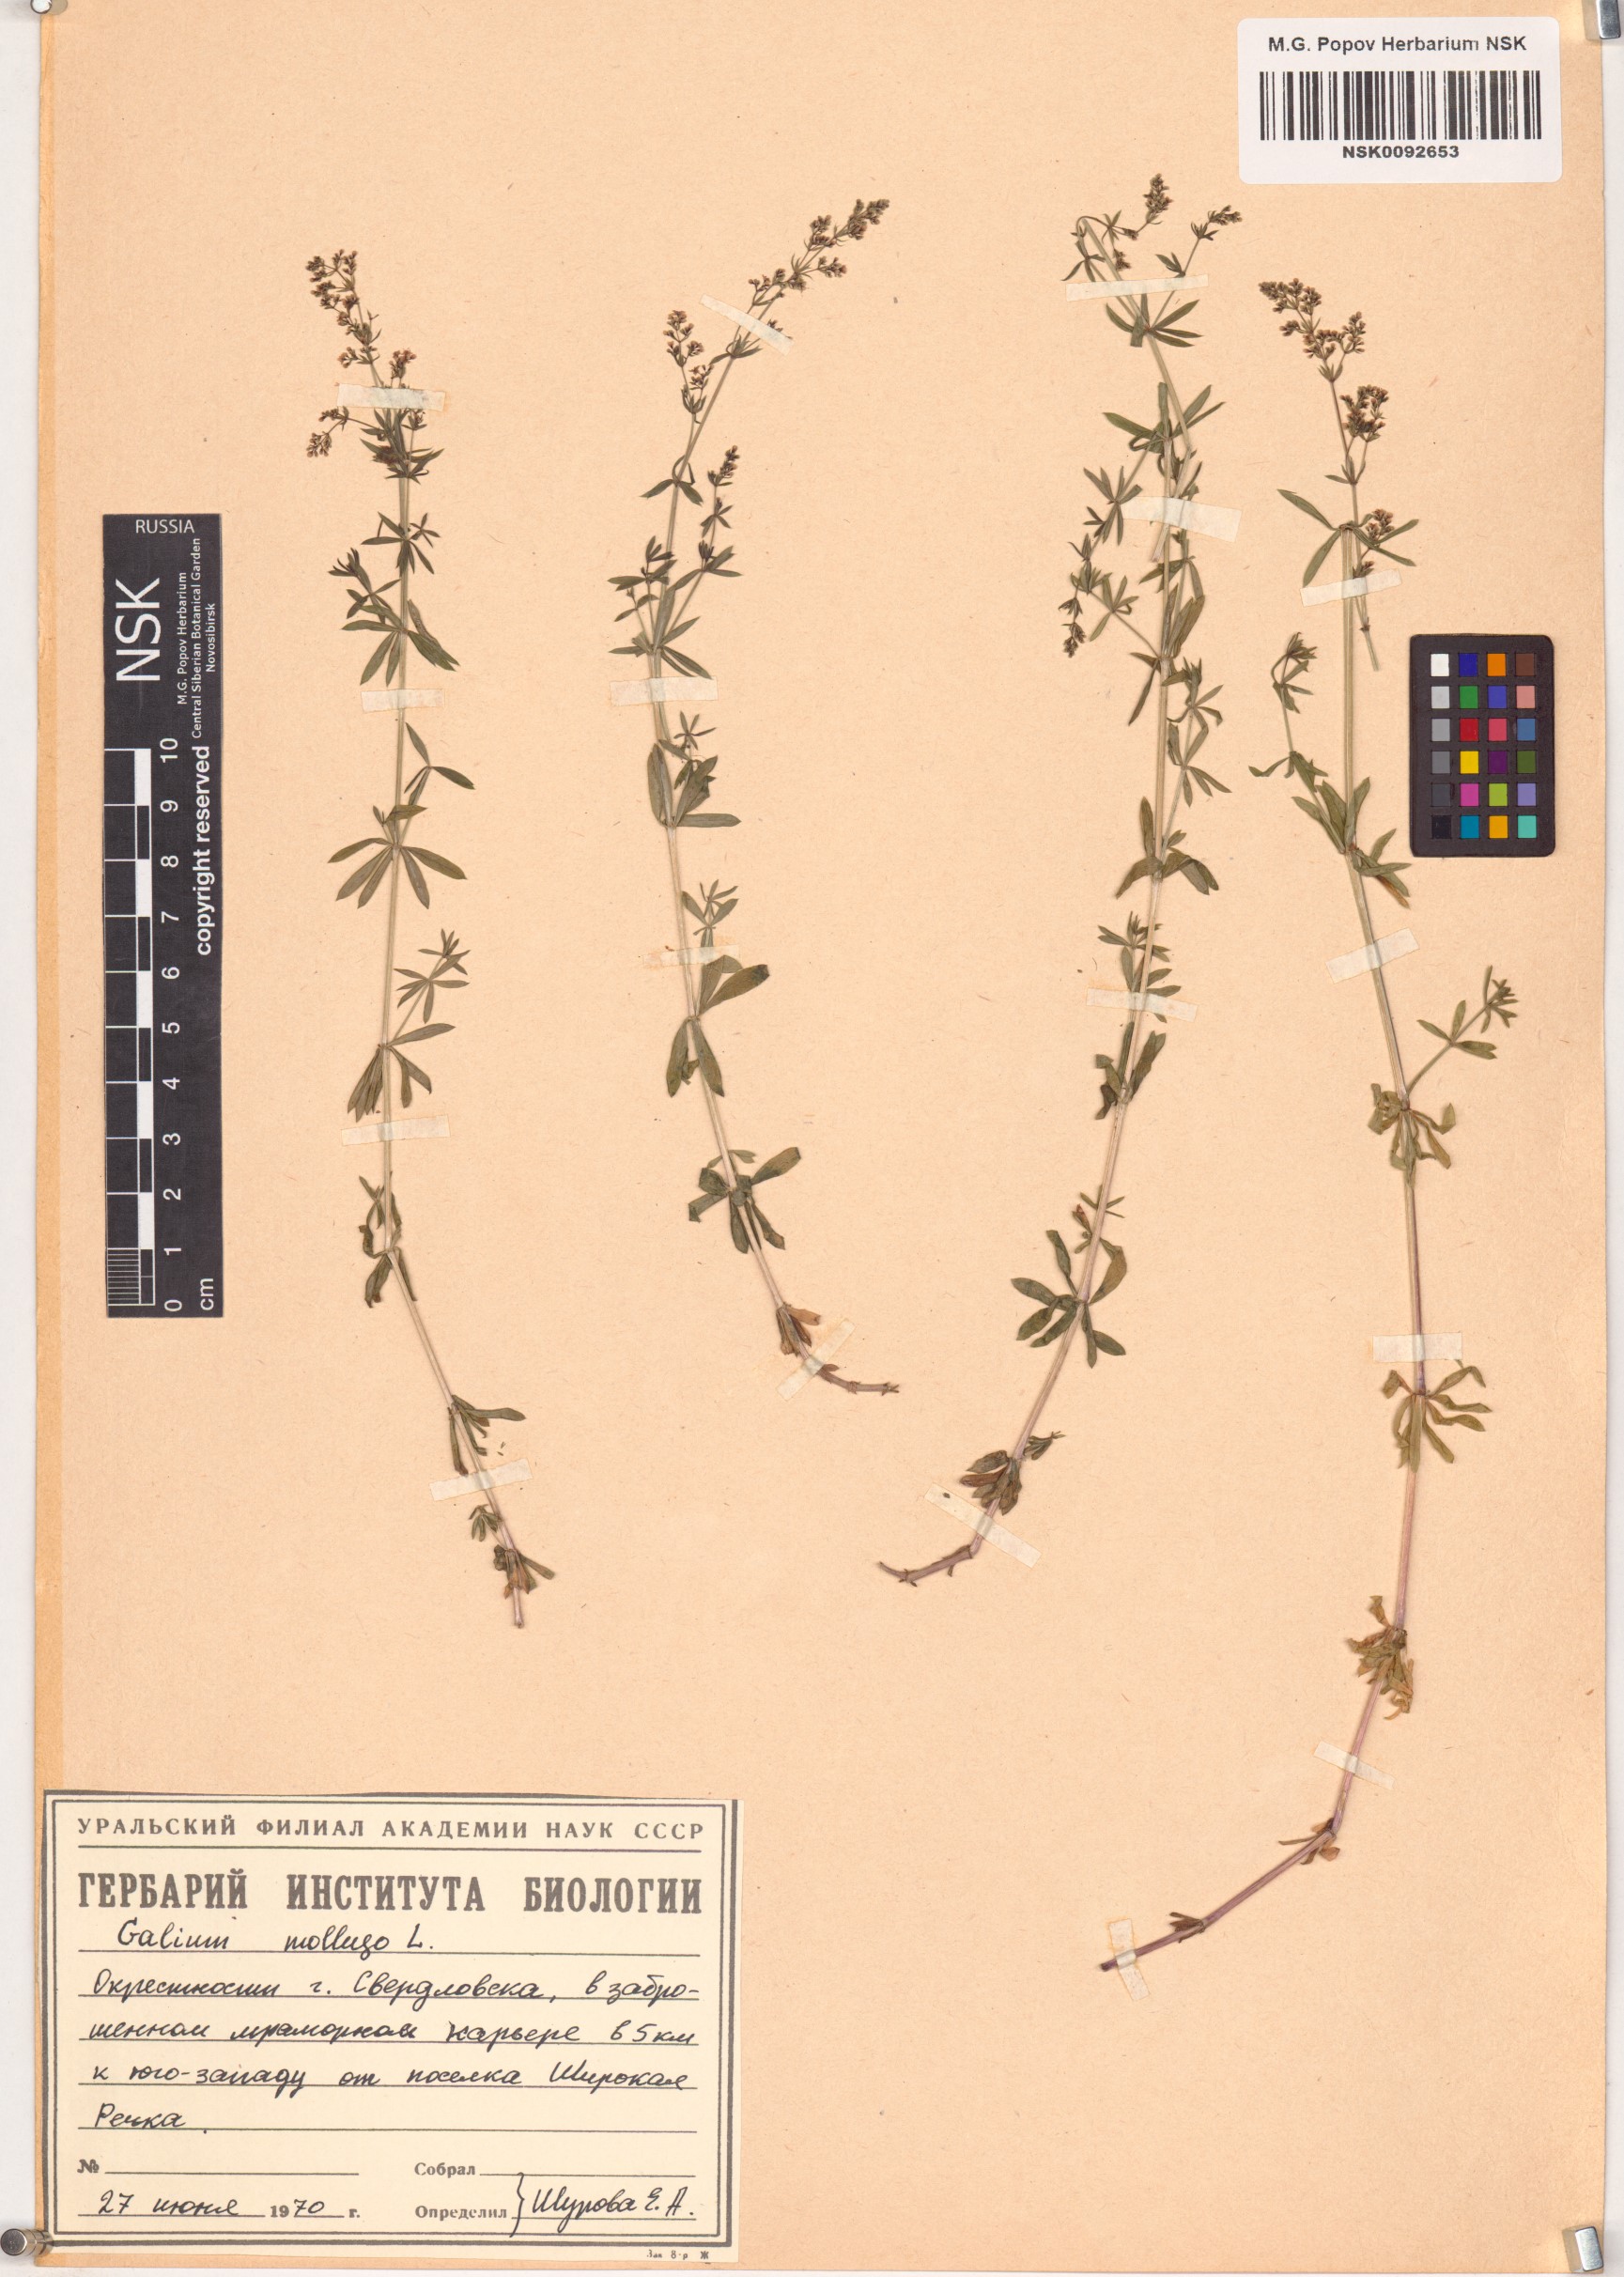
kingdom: Plantae
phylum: Tracheophyta
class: Magnoliopsida
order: Gentianales
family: Rubiaceae
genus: Galium
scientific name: Galium mollugo
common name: Hedge bedstraw
